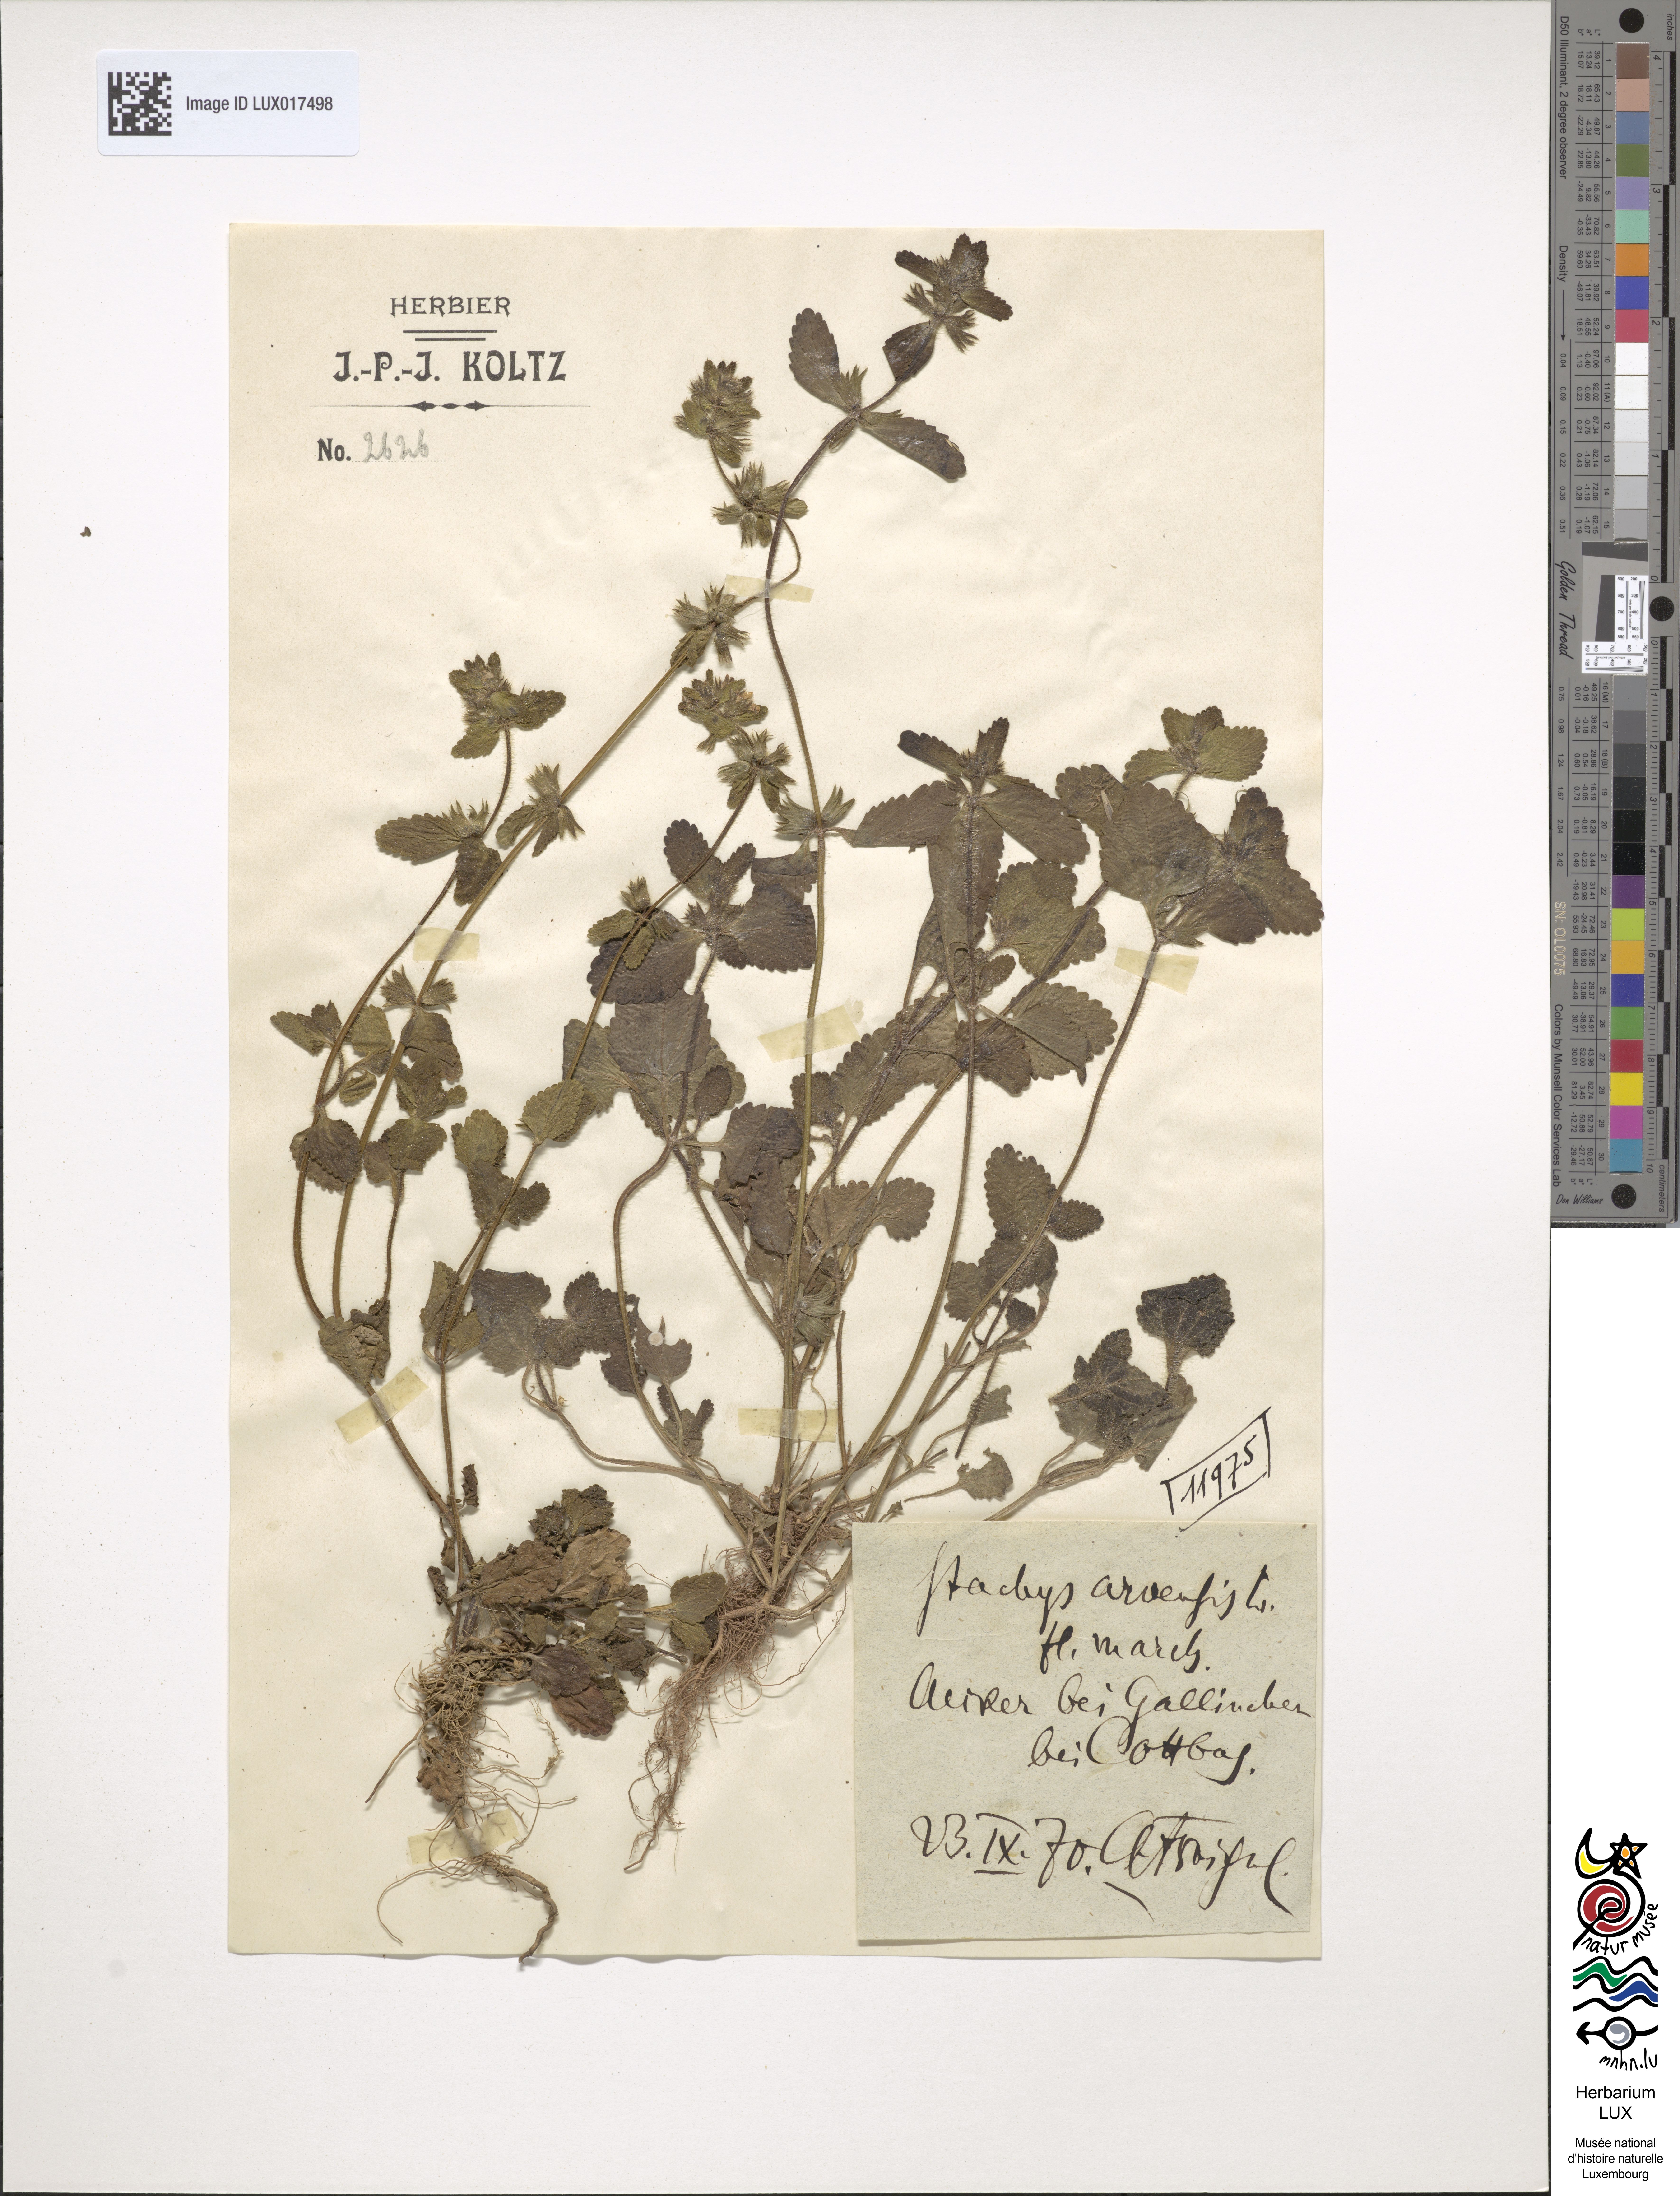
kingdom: Plantae
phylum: Tracheophyta
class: Magnoliopsida
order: Lamiales
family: Lamiaceae
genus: Stachys
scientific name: Stachys arvensis
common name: Field woundwort
